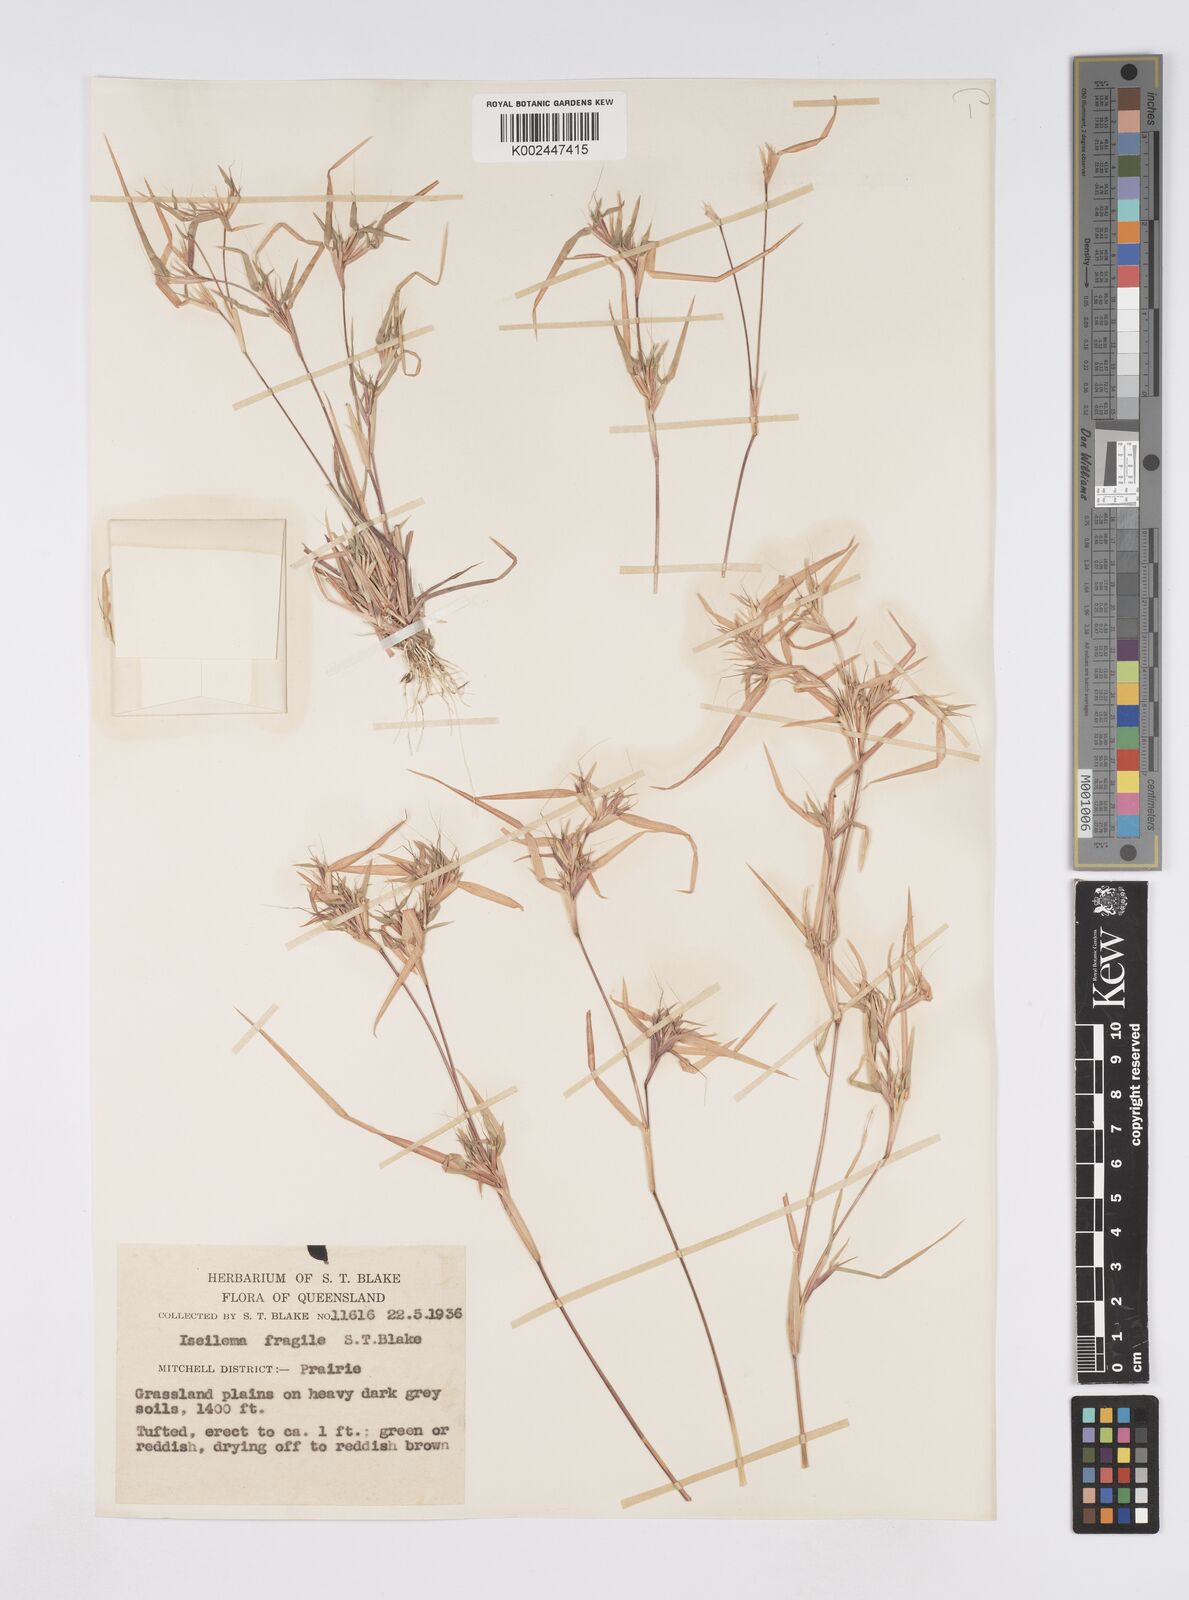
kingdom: Plantae
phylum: Tracheophyta
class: Liliopsida
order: Poales
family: Poaceae
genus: Iseilema
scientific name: Iseilema fragile
